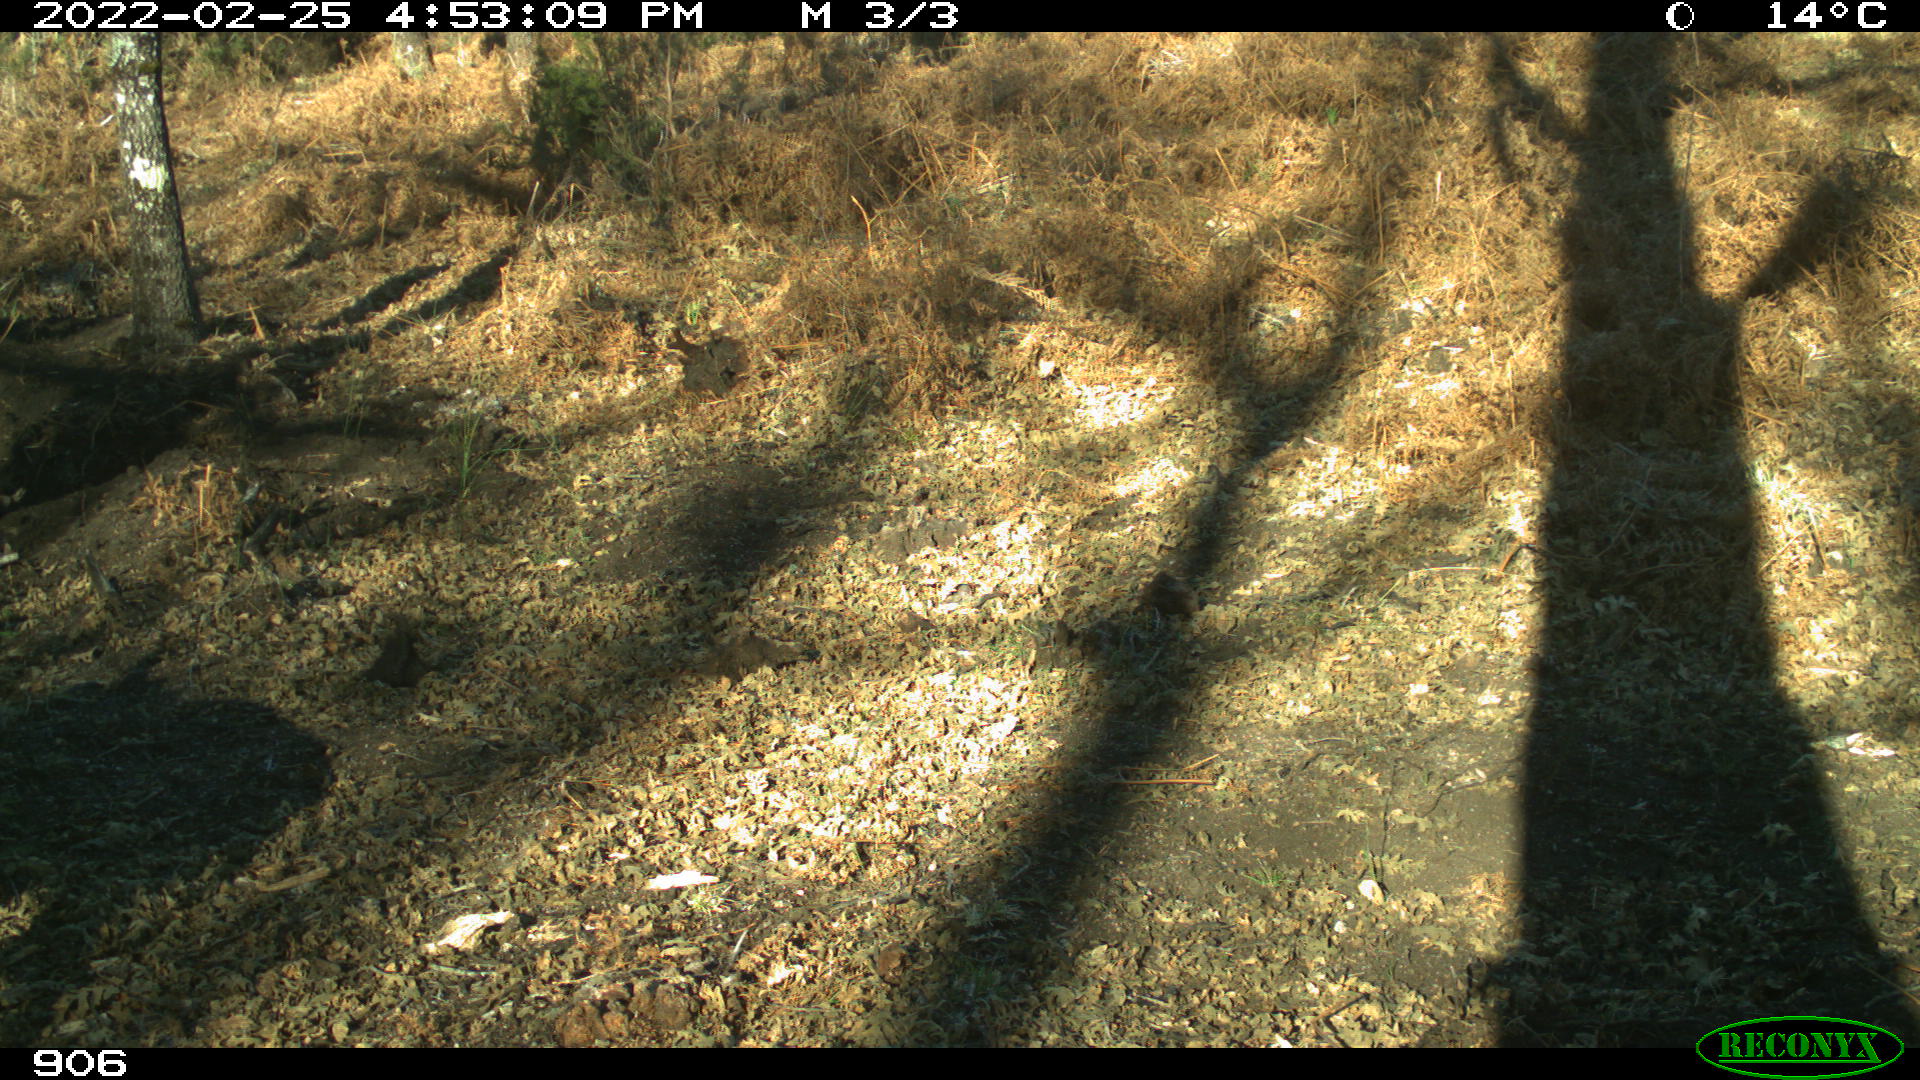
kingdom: Animalia
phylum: Chordata
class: Mammalia
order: Artiodactyla
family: Suidae
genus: Sus
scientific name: Sus scrofa
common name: Wild boar
